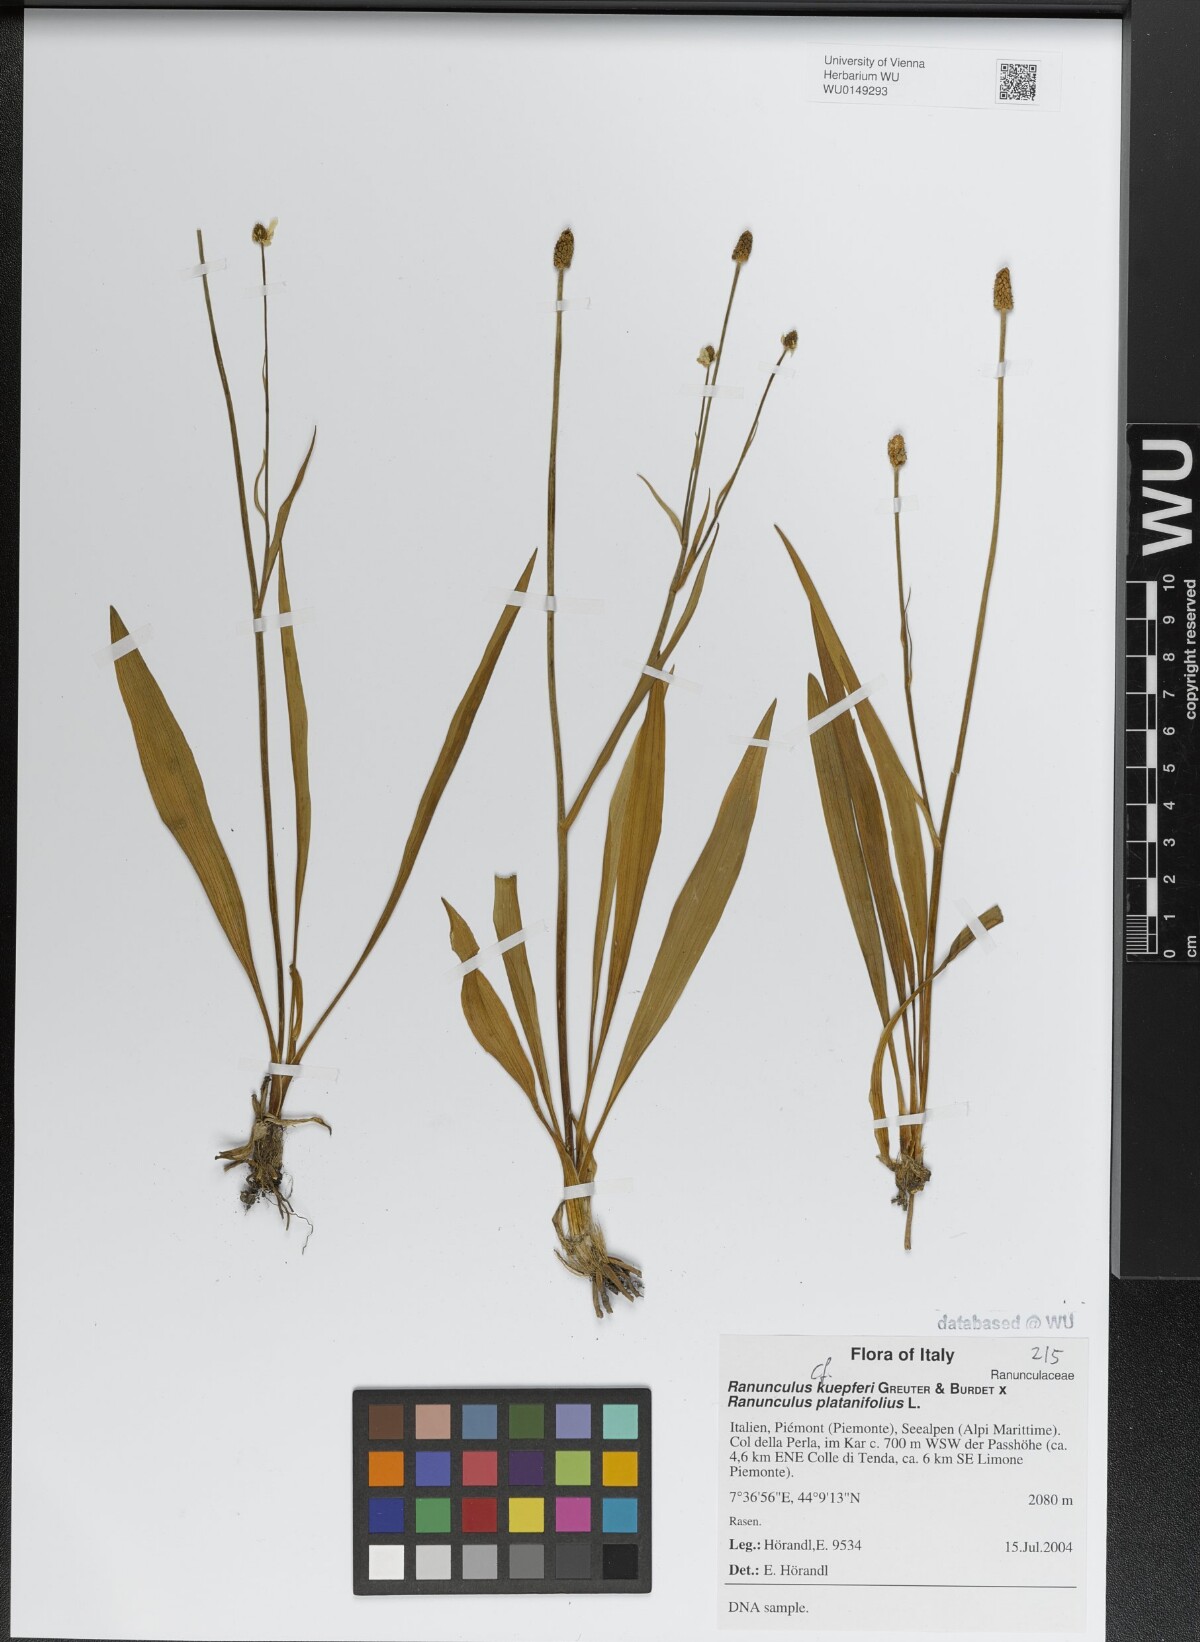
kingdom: Plantae
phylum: Tracheophyta
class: Magnoliopsida
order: Ranunculales
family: Ranunculaceae
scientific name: Ranunculaceae
